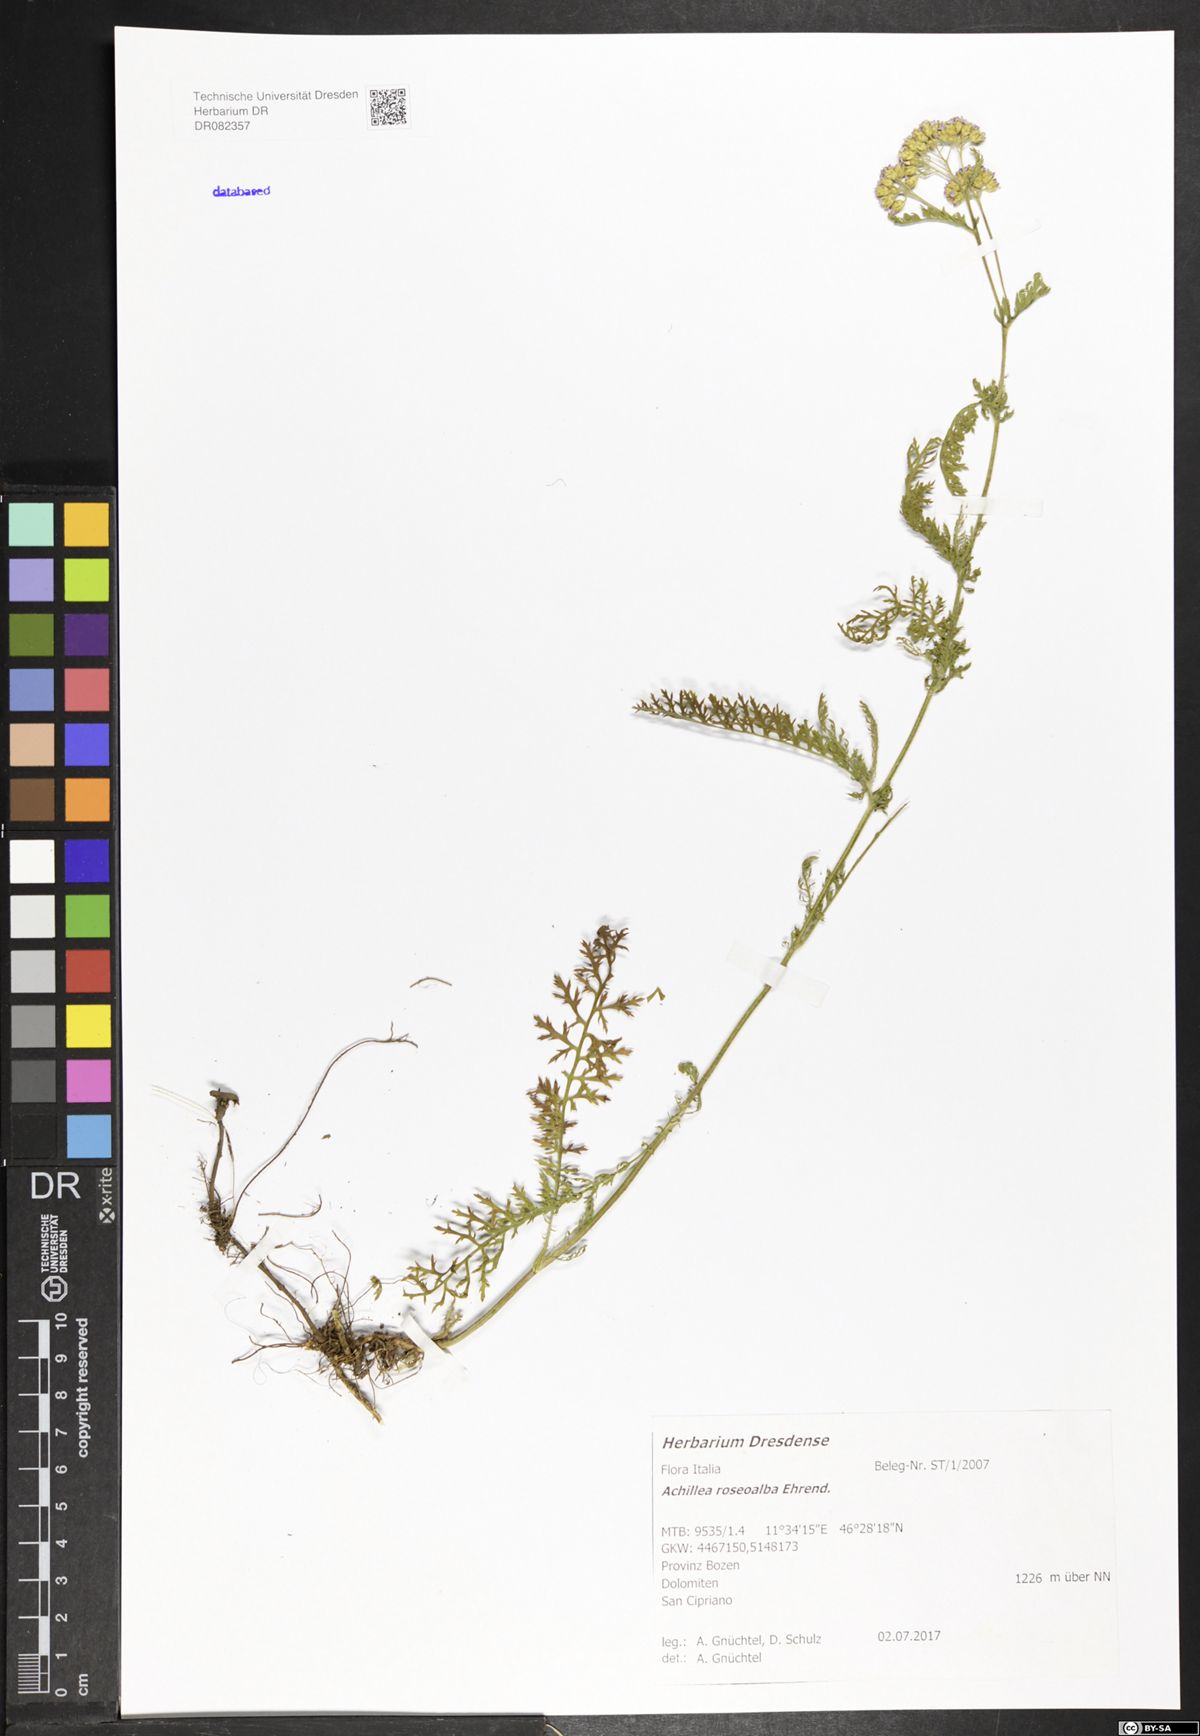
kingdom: Plantae
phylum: Tracheophyta
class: Magnoliopsida
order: Asterales
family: Asteraceae
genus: Achillea
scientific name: Achillea roseoalba
